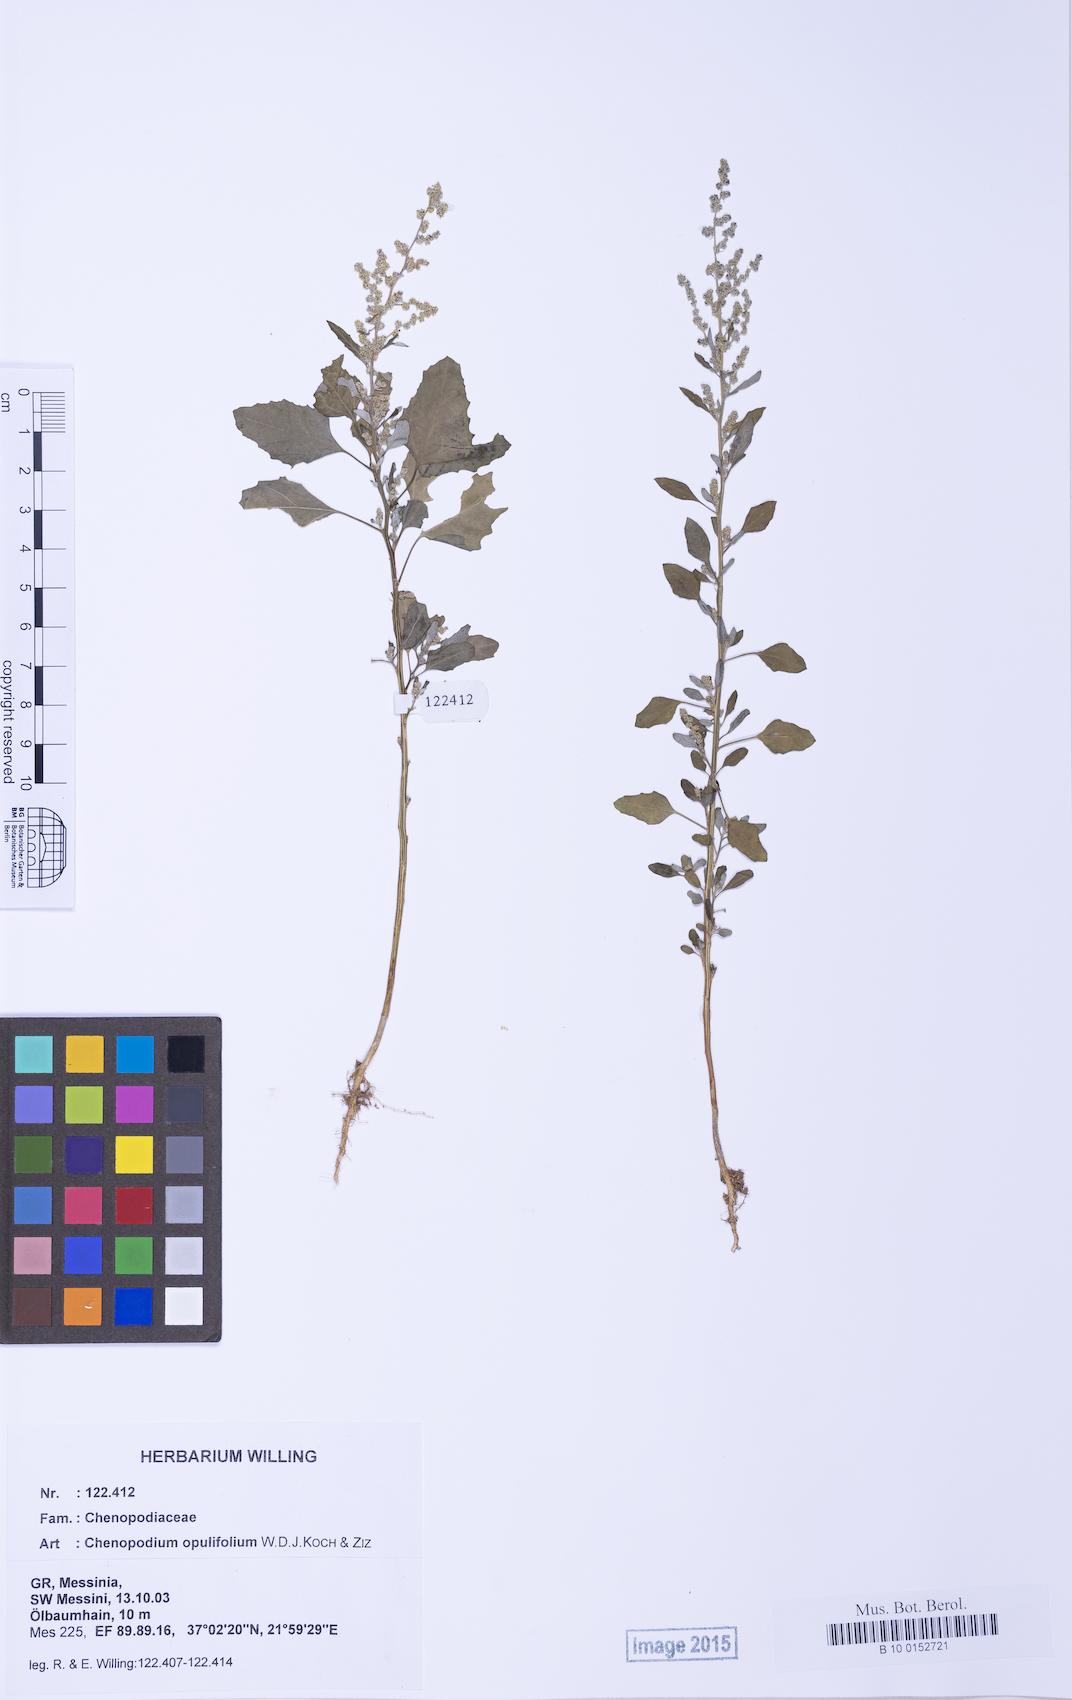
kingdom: Plantae
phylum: Tracheophyta
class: Magnoliopsida
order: Caryophyllales
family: Amaranthaceae
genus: Chenopodium
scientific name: Chenopodium album
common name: Fat-hen
